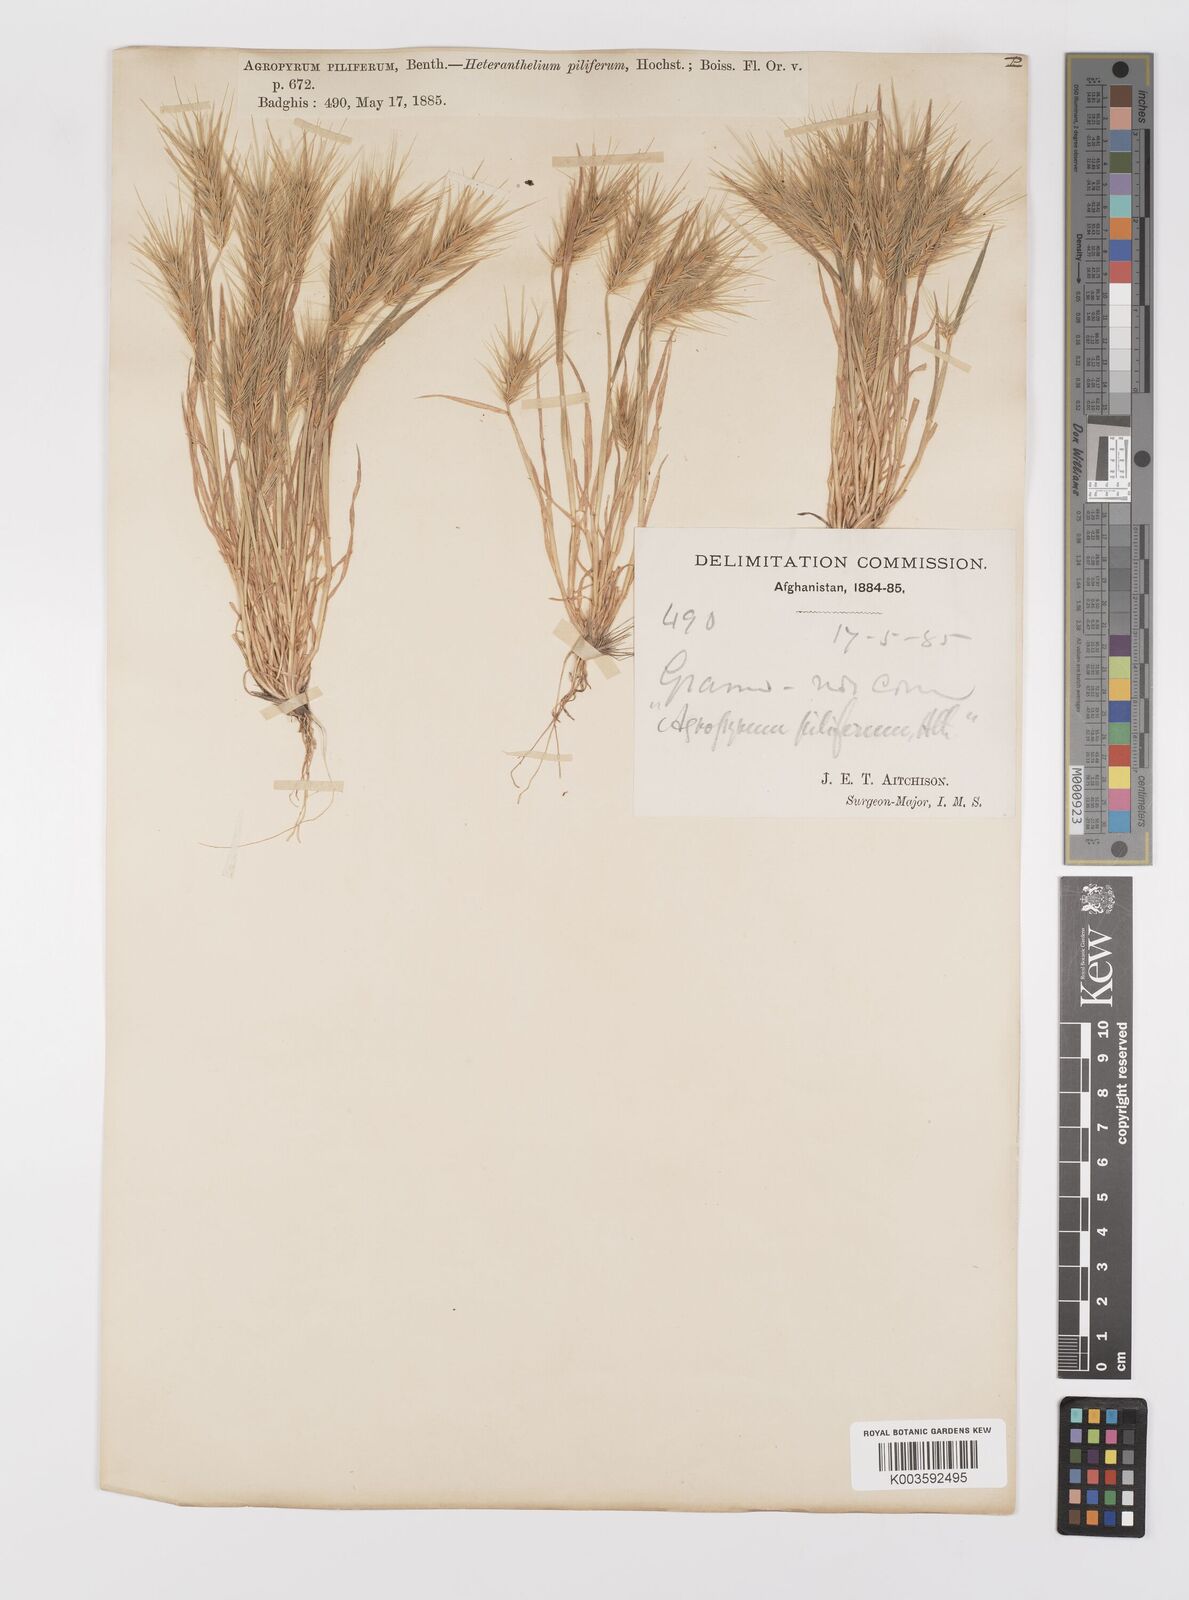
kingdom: Plantae
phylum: Tracheophyta
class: Liliopsida
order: Poales
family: Poaceae
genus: Heteranthelium
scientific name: Heteranthelium piliferum
